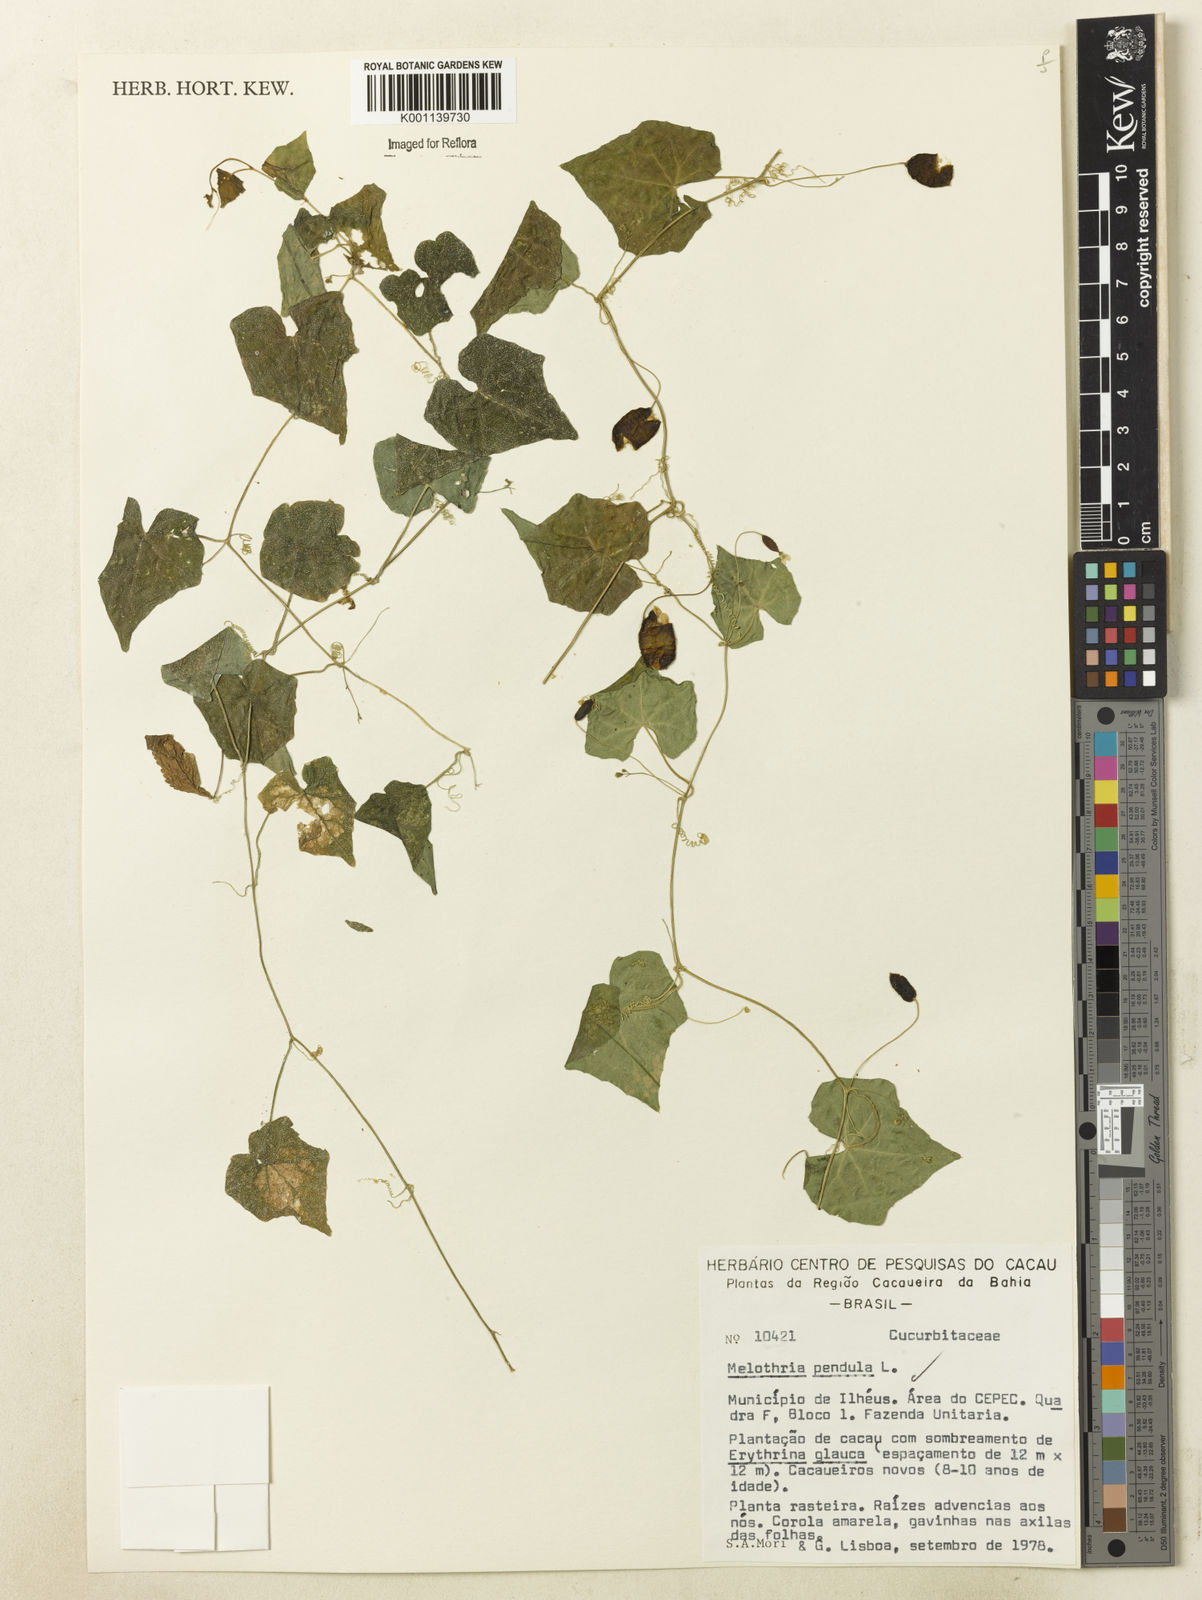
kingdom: Plantae
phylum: Tracheophyta
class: Magnoliopsida
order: Cucurbitales
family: Cucurbitaceae
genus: Melothria
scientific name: Melothria pendula
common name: Creeping-cucumber
